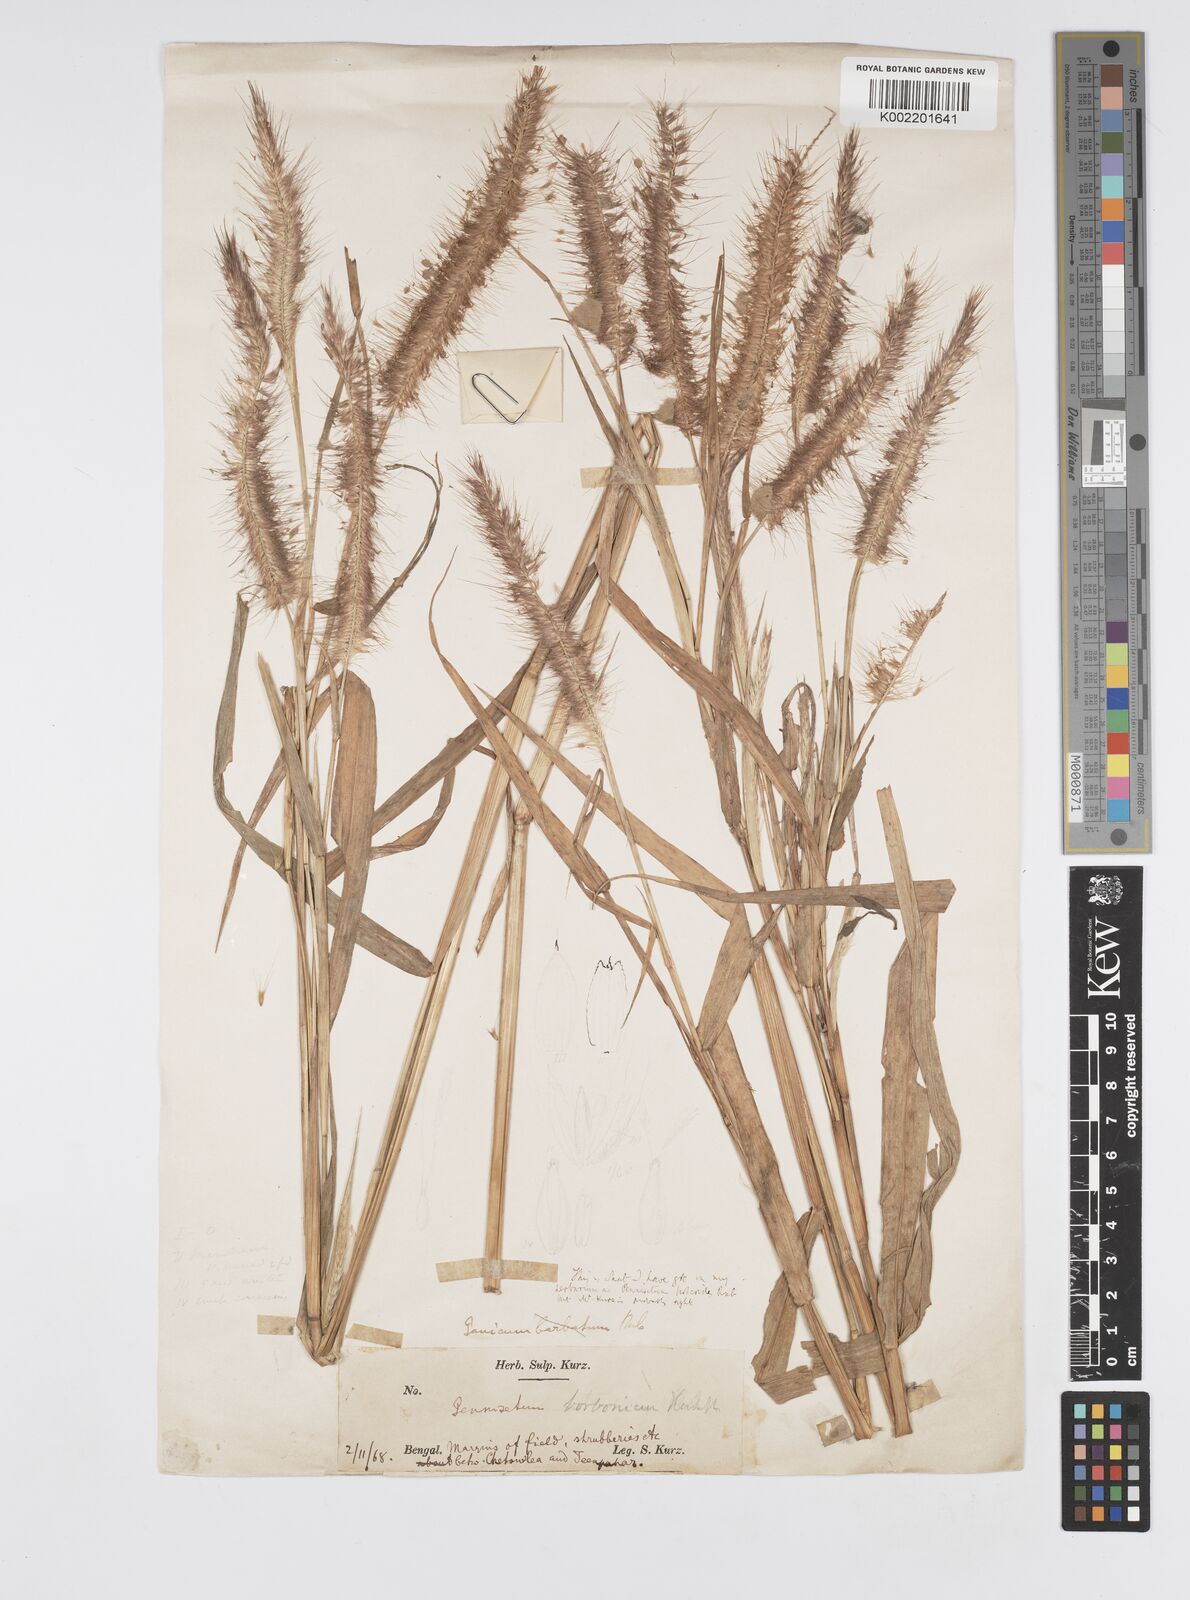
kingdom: Plantae
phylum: Tracheophyta
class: Liliopsida
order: Poales
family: Poaceae
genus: Setaria
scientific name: Setaria parviflora
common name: Knotroot bristle-grass
